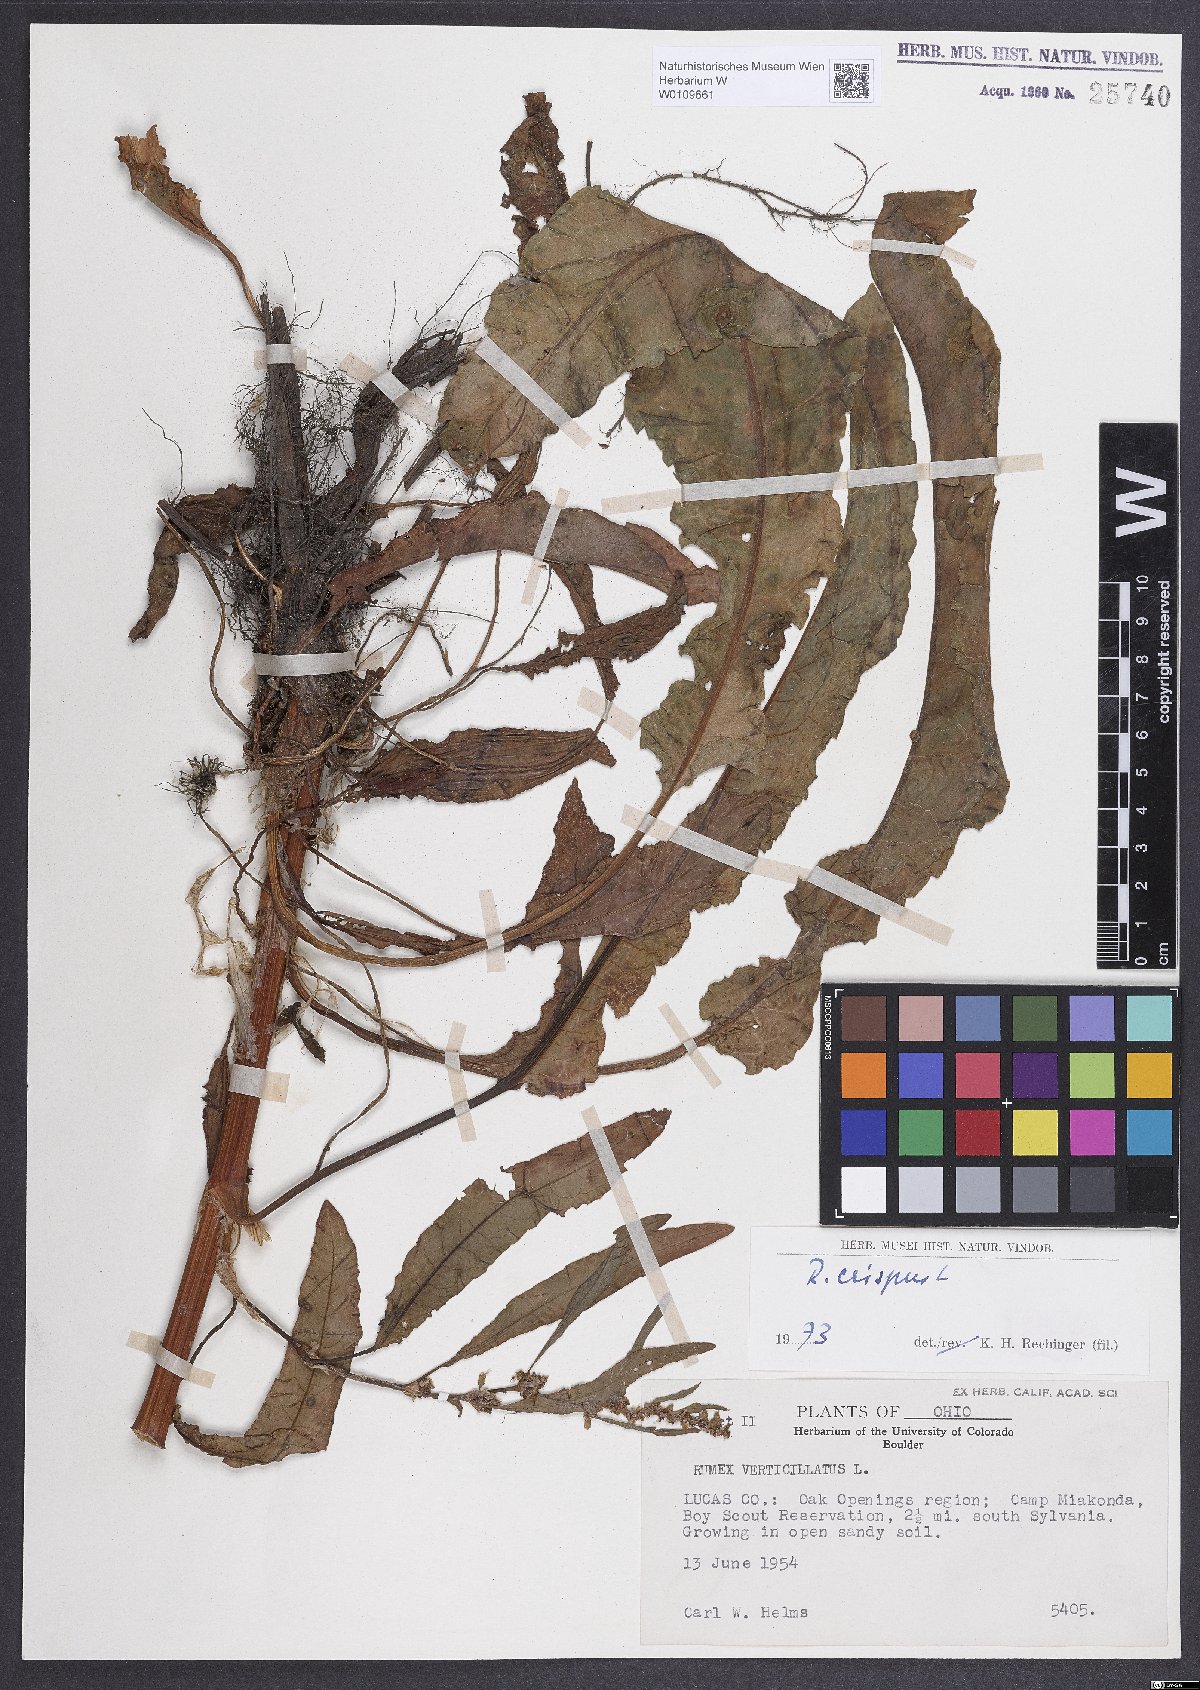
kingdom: Plantae
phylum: Tracheophyta
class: Magnoliopsida
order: Caryophyllales
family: Polygonaceae
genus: Rumex
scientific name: Rumex crispus
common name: Curled dock
